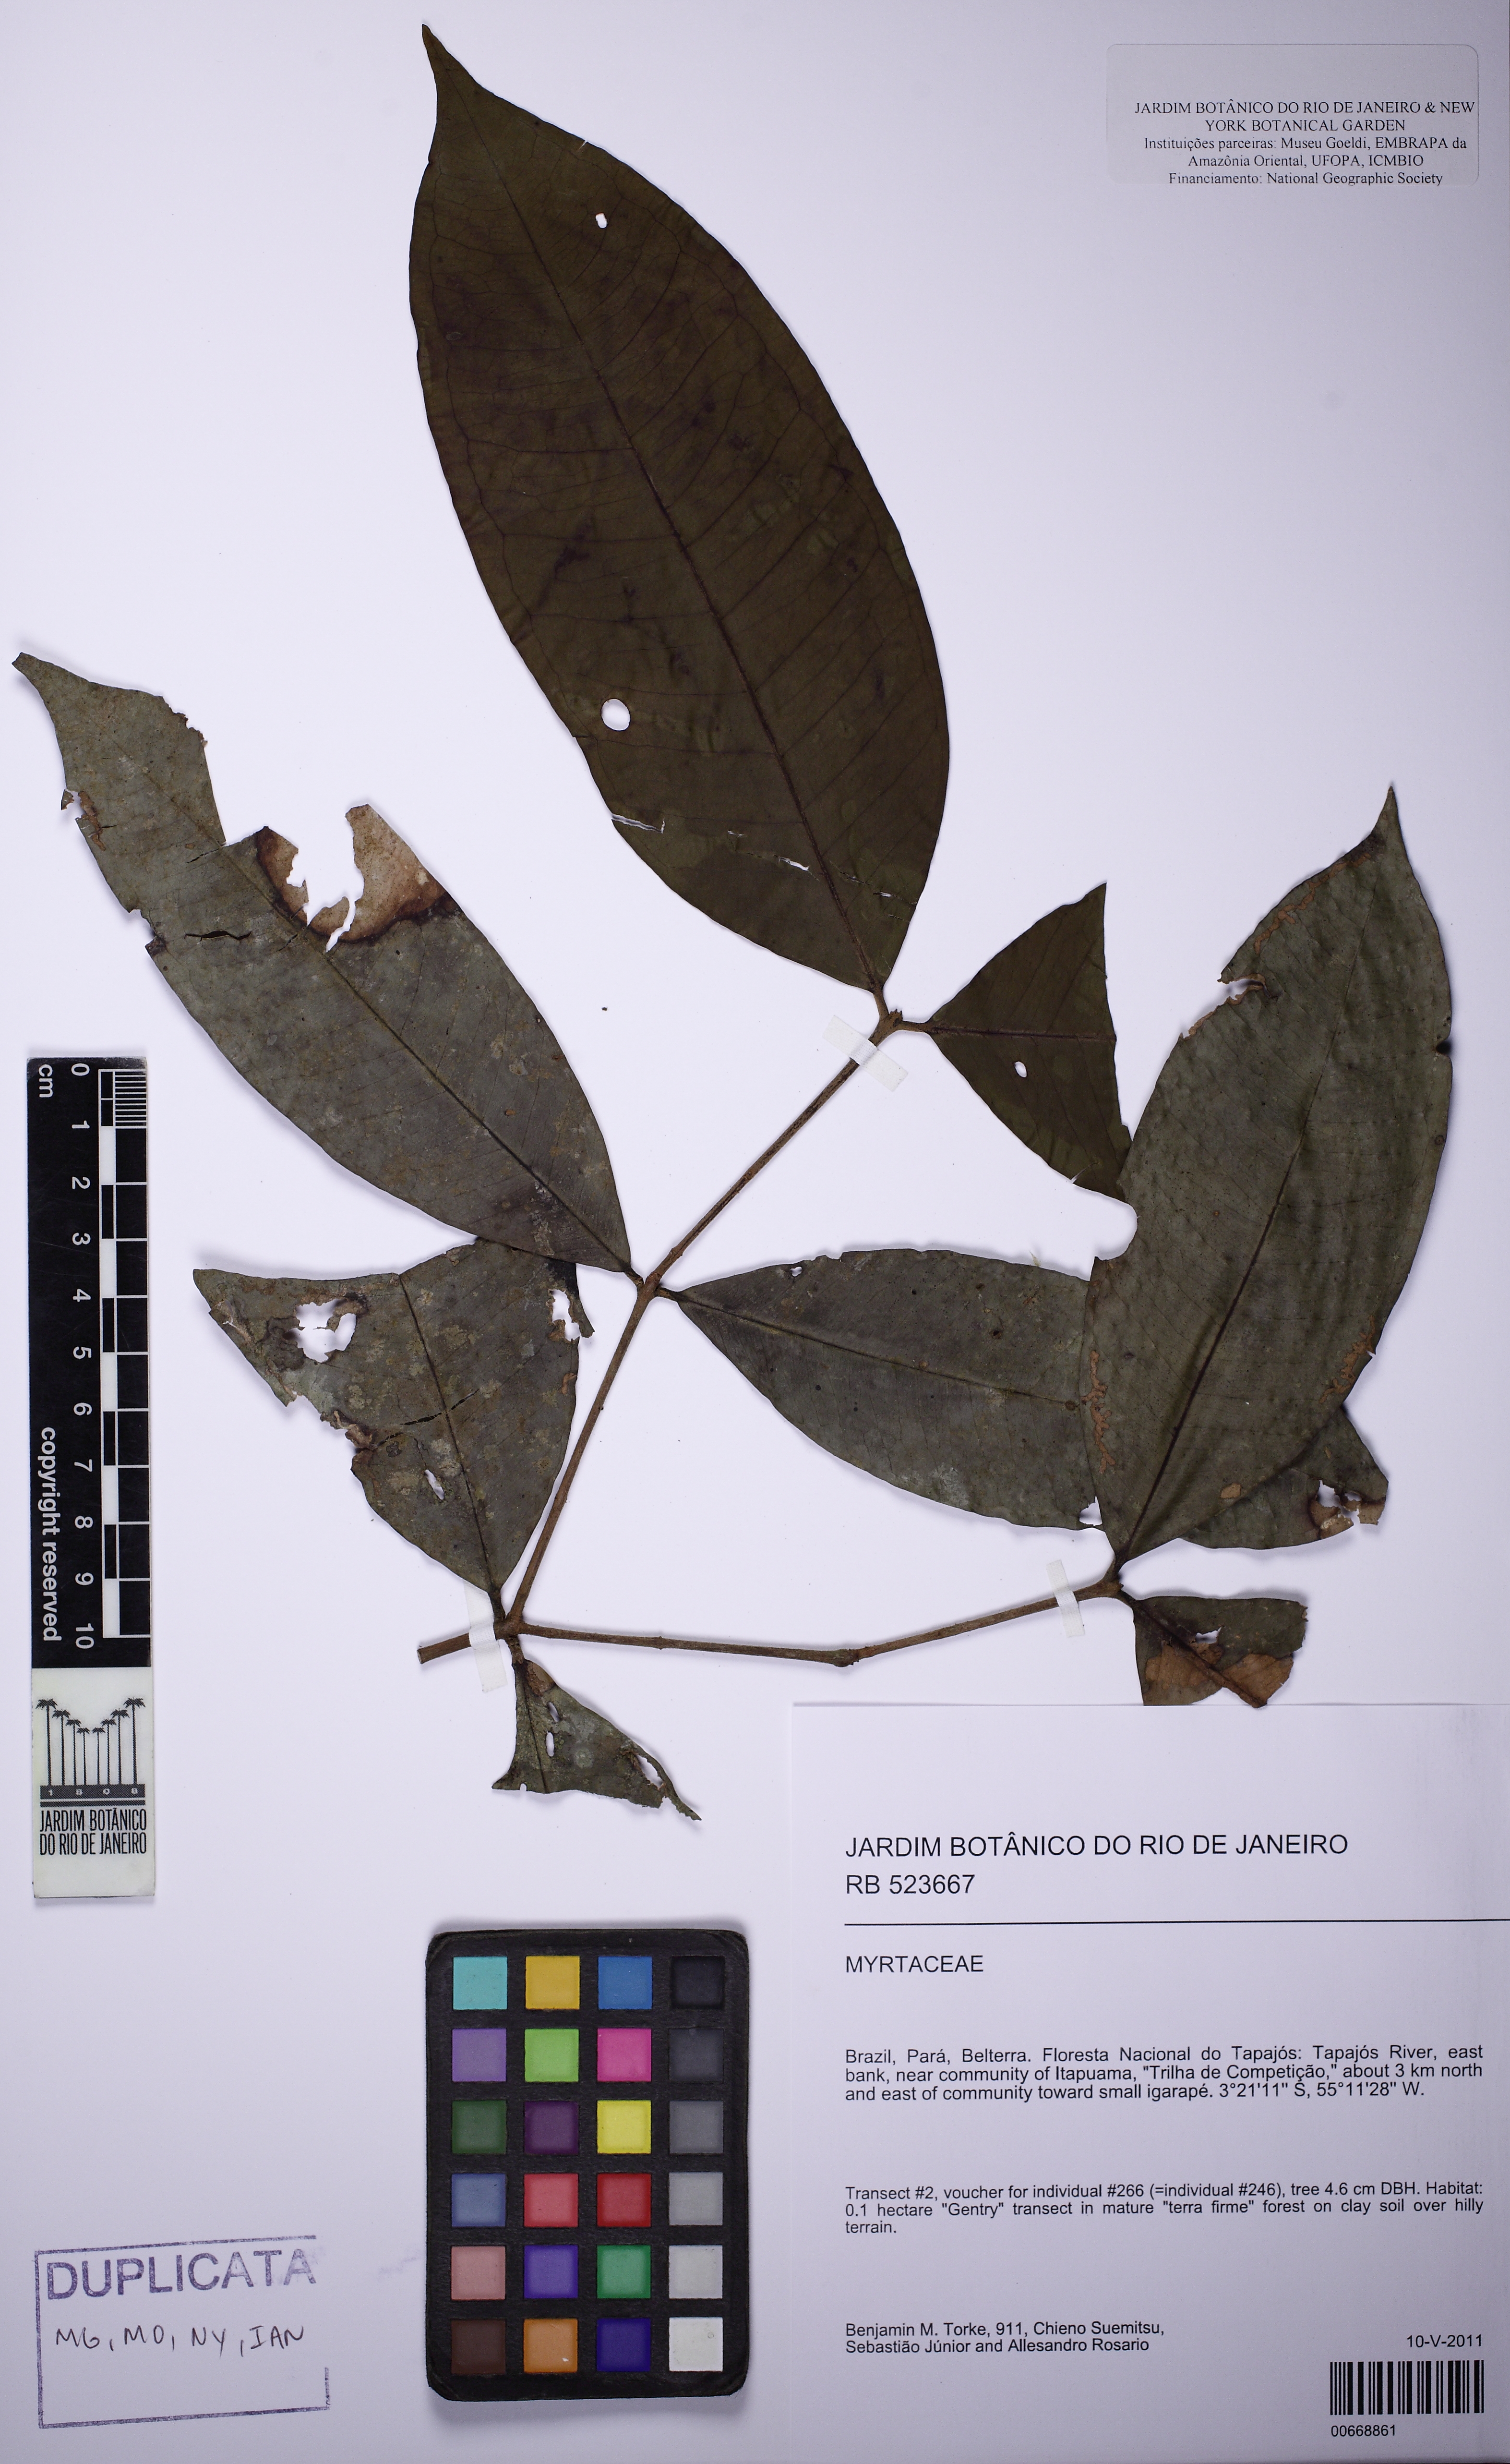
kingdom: Plantae
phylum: Tracheophyta
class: Magnoliopsida
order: Myrtales
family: Myrtaceae
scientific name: Myrtaceae
